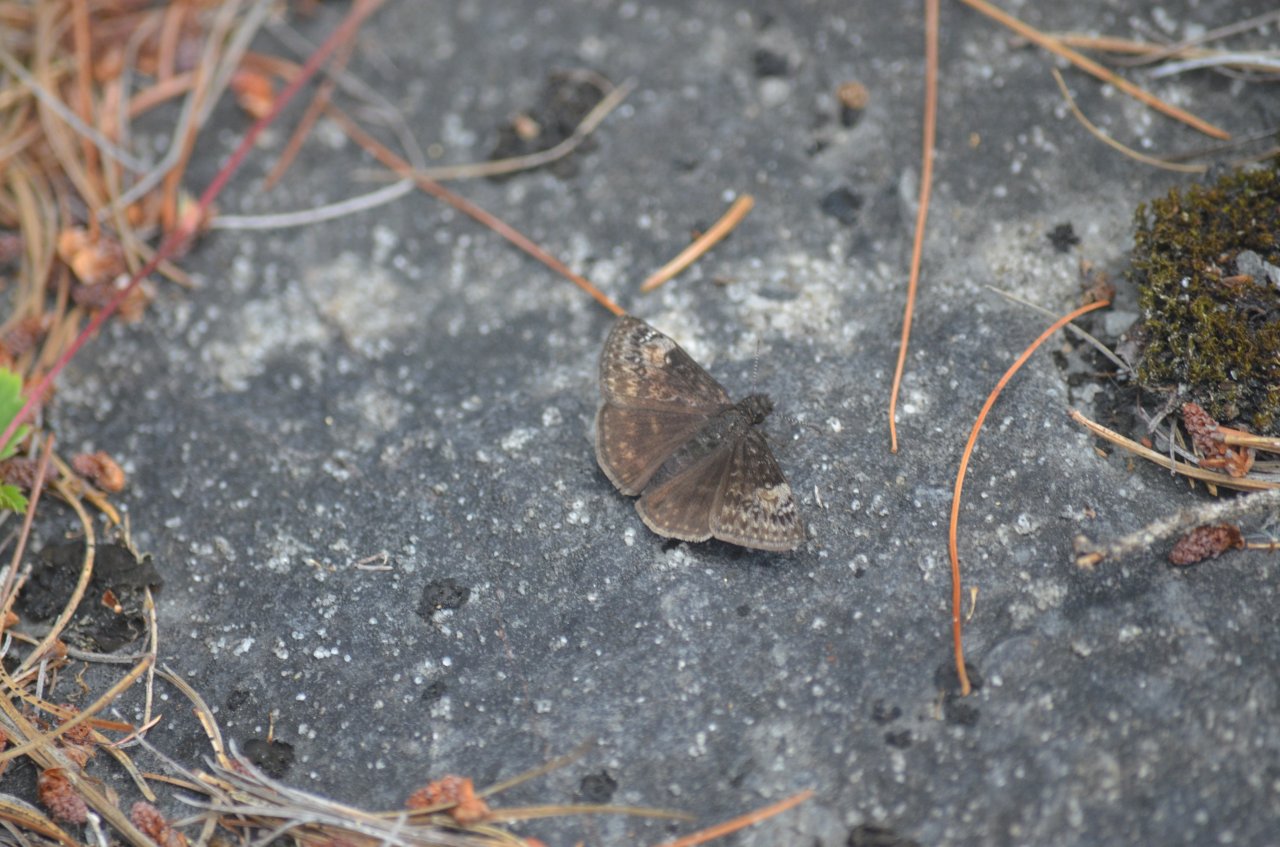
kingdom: Animalia
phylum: Arthropoda
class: Insecta
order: Lepidoptera
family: Hesperiidae
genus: Gesta
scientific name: Gesta
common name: Columbine Duskywing
